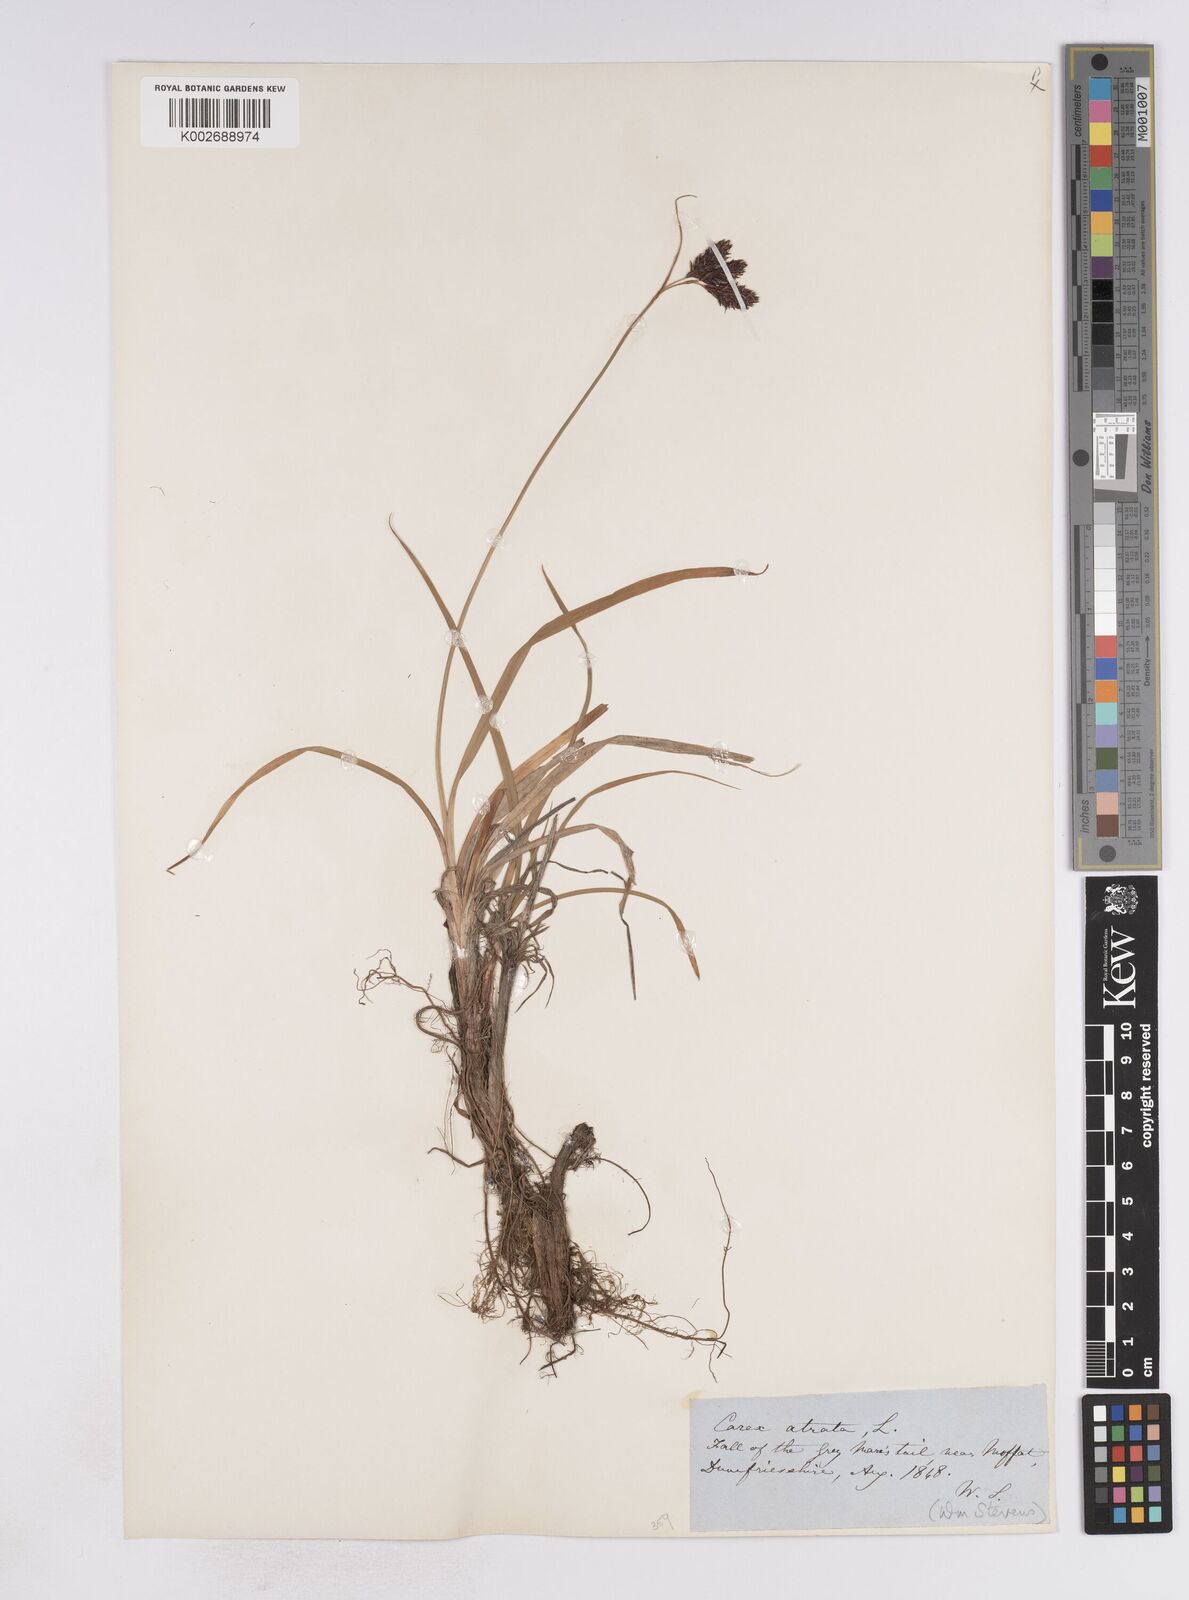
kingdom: Plantae
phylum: Tracheophyta
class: Liliopsida
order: Poales
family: Cyperaceae
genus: Carex
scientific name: Carex atrata
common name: Black alpine sedge
